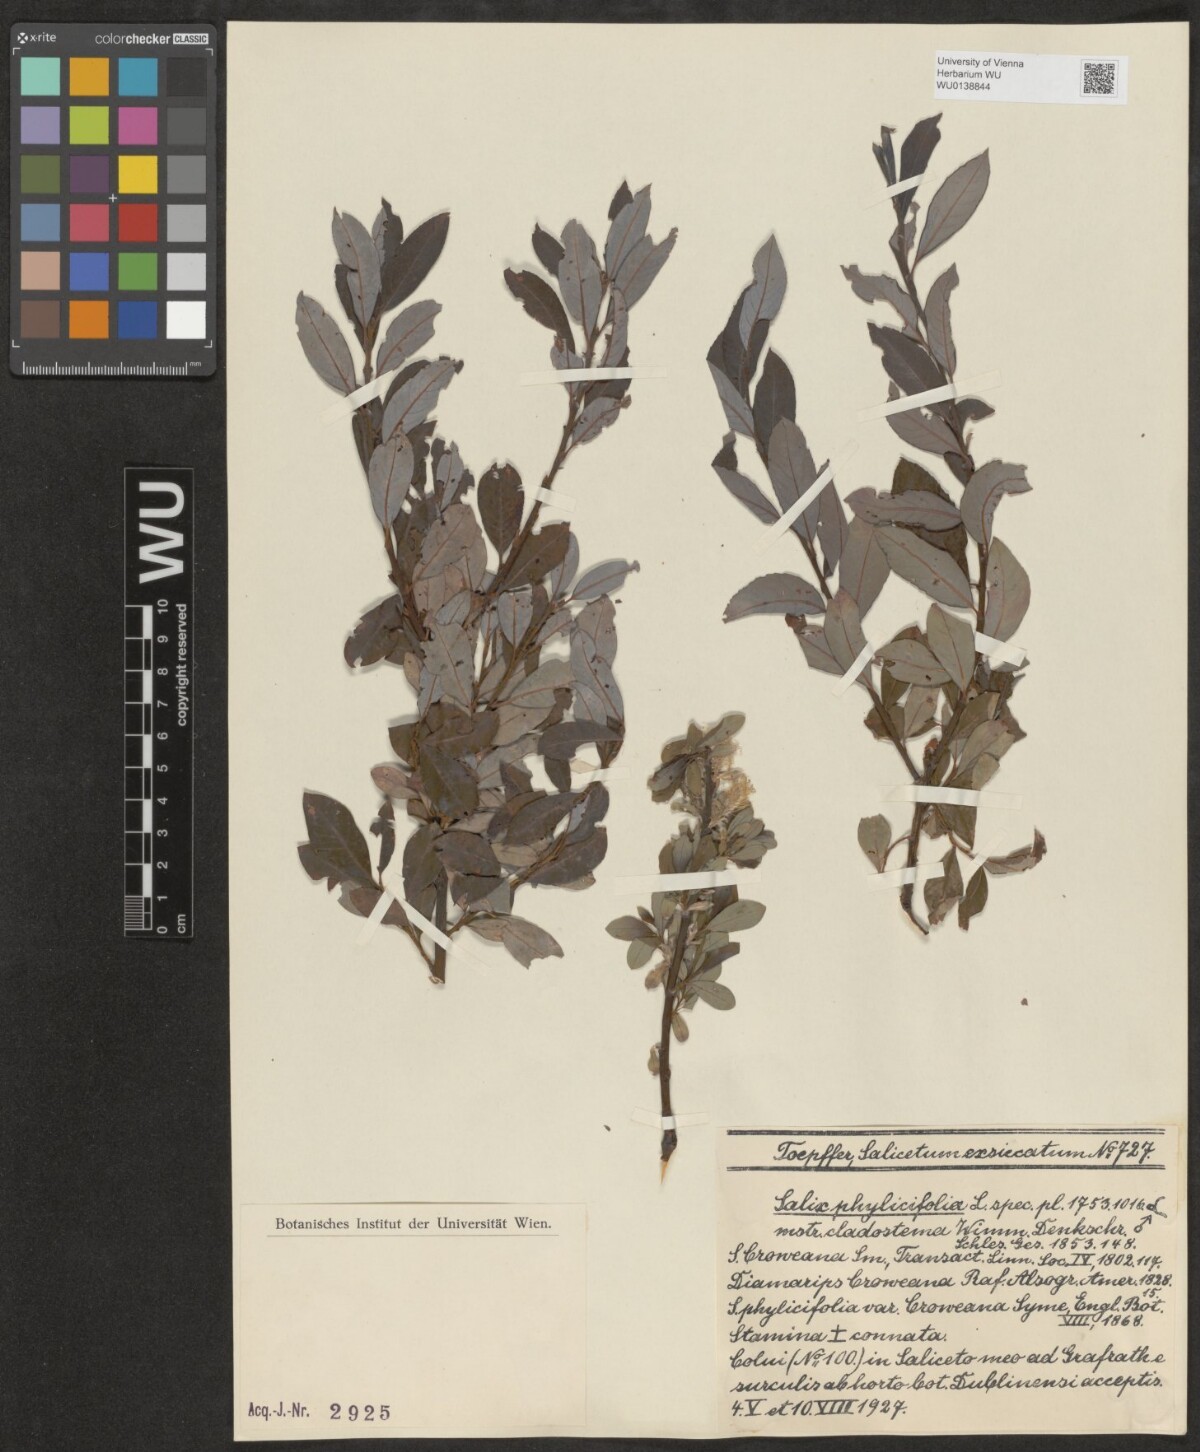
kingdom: Plantae
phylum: Tracheophyta
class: Magnoliopsida
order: Malpighiales
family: Salicaceae
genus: Salix
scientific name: Salix phylicifolia
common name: Tea-leaved willow
